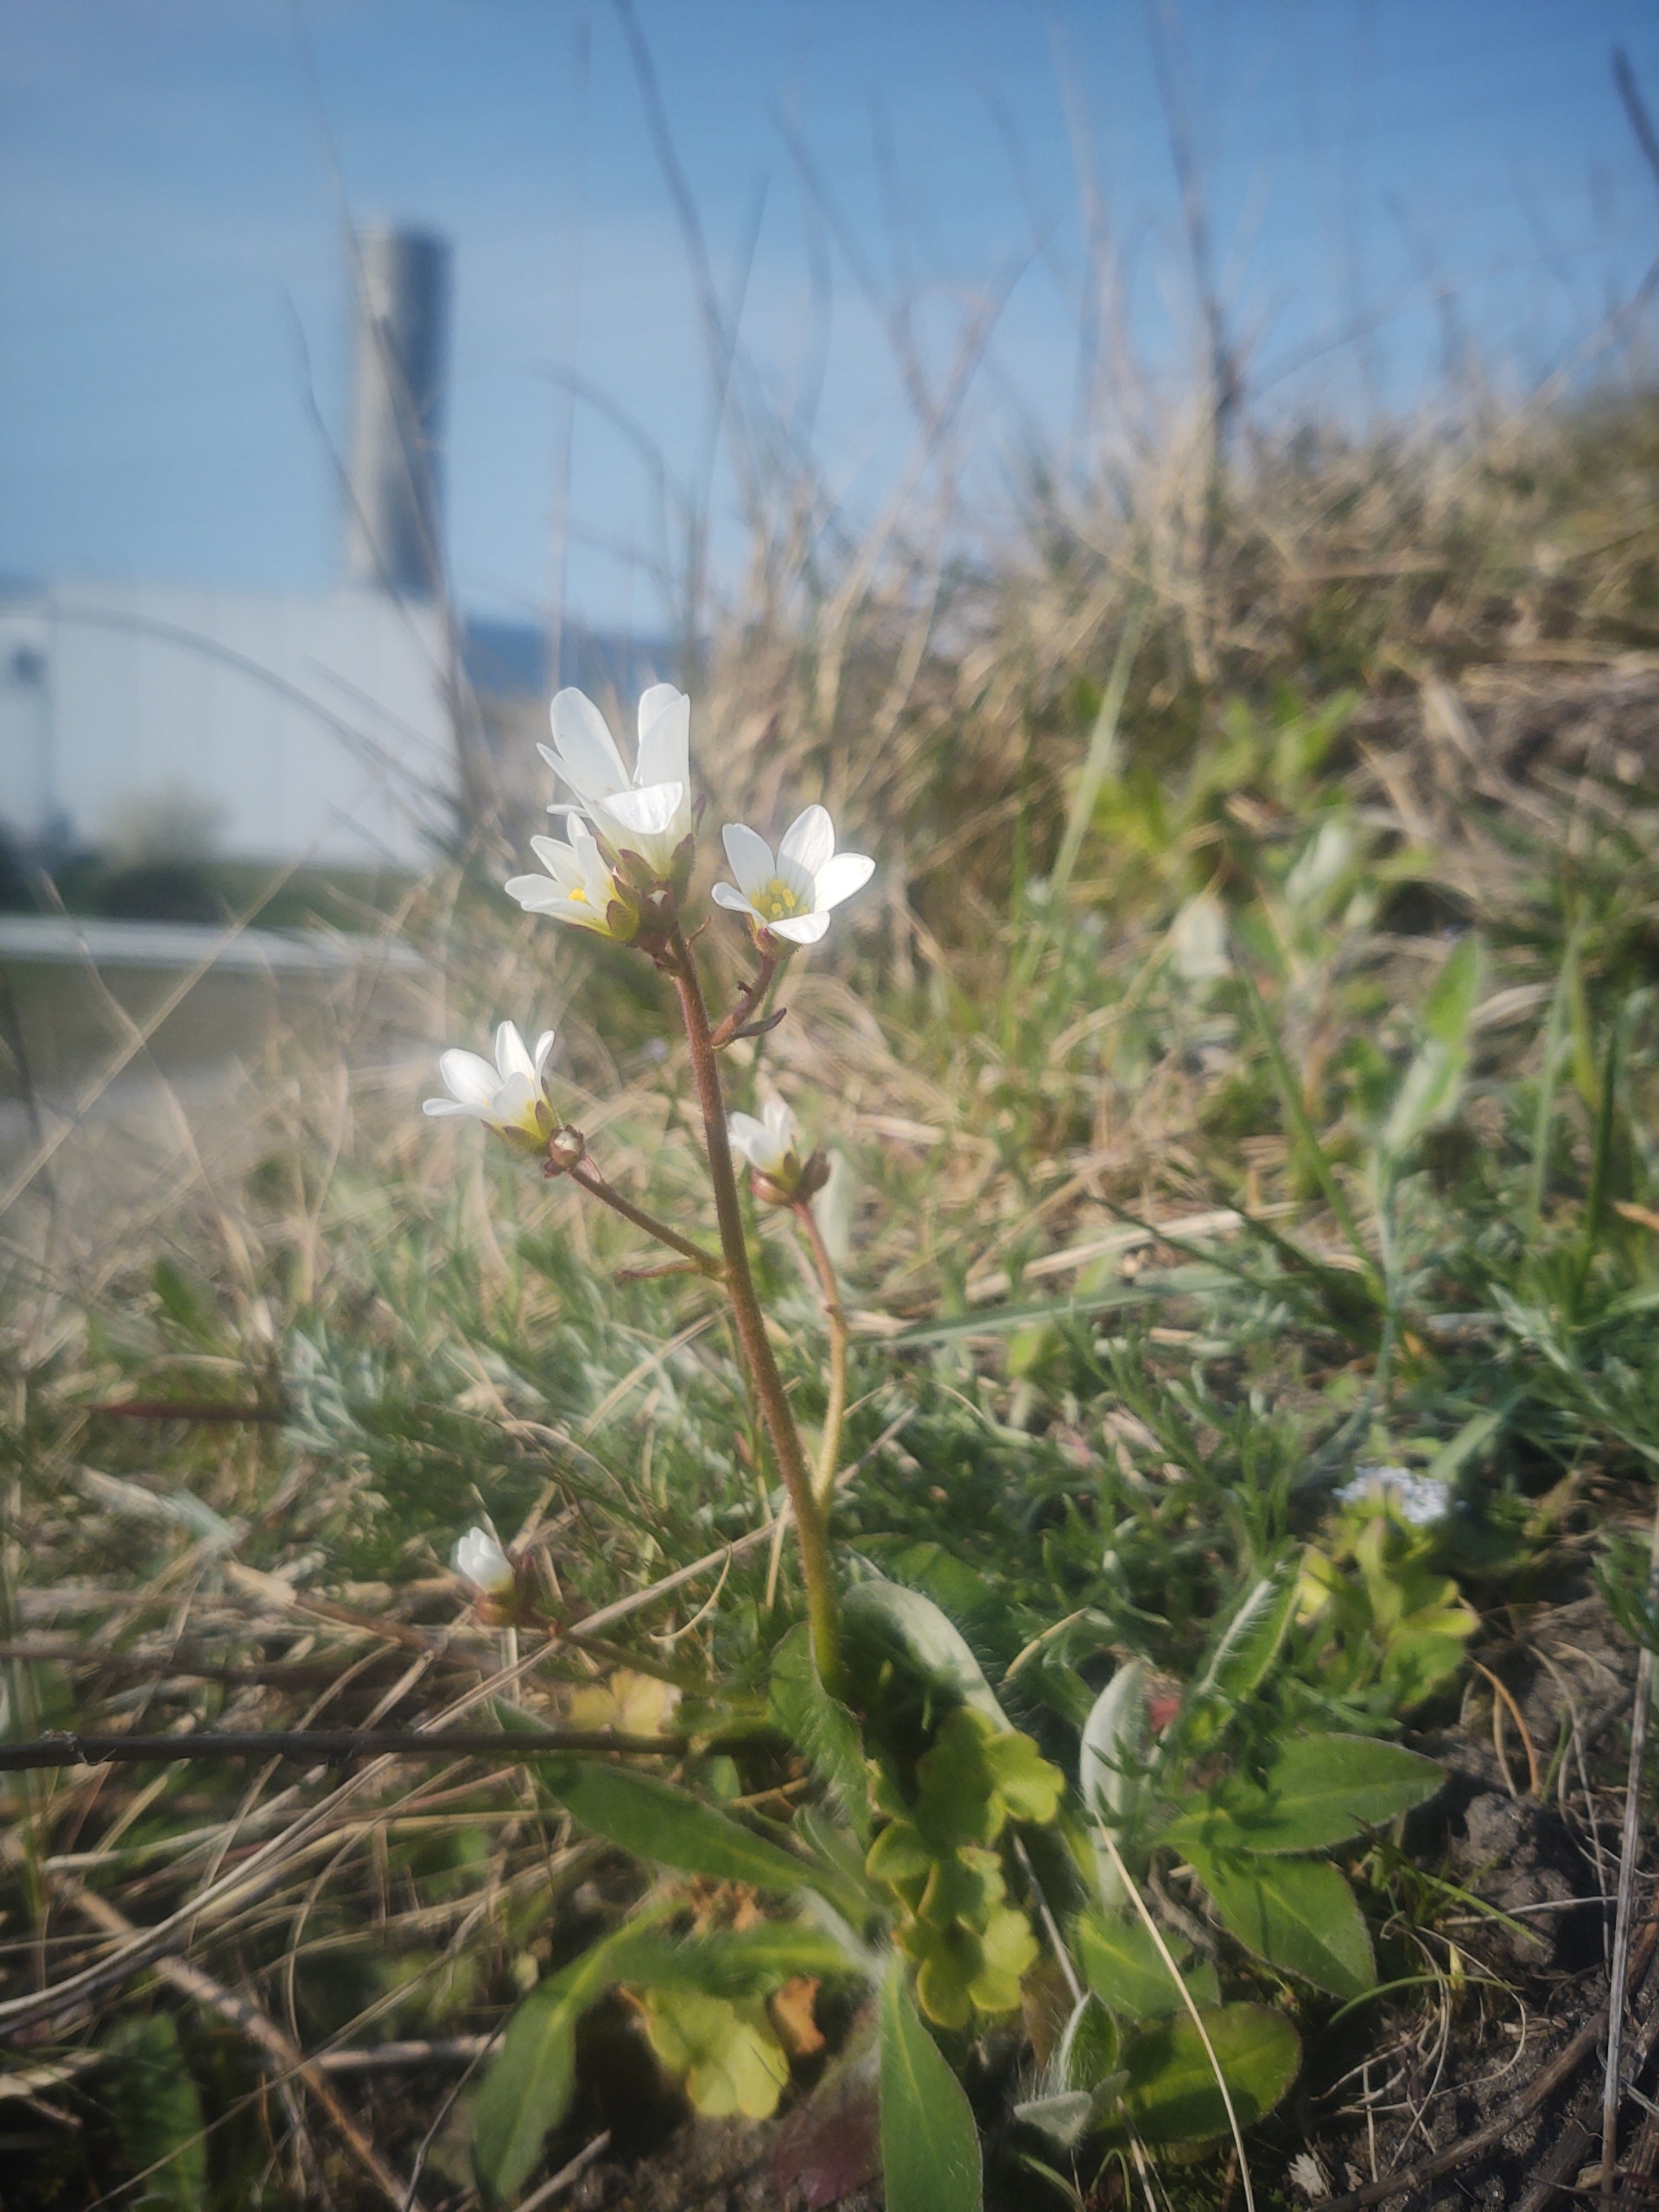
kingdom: Plantae
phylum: Tracheophyta
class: Magnoliopsida
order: Saxifragales
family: Saxifragaceae
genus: Saxifraga
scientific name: Saxifraga granulata
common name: Kornet stenbræk
